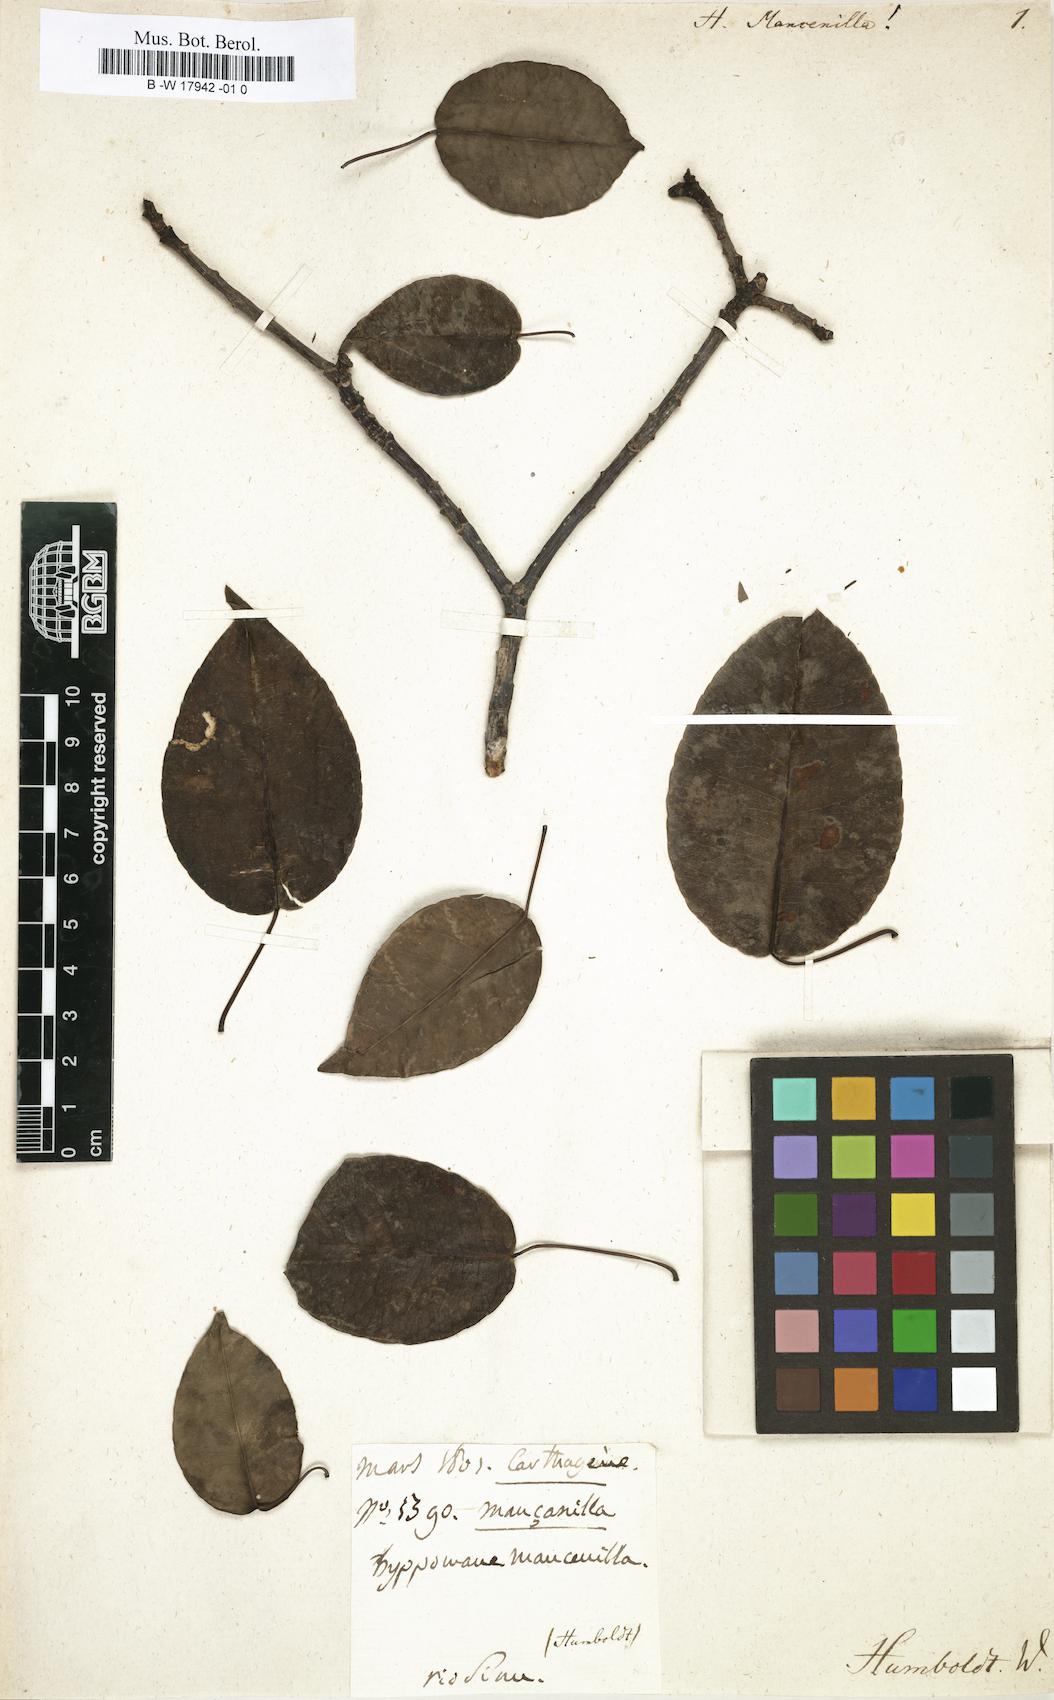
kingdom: Plantae
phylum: Tracheophyta
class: Magnoliopsida
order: Malpighiales
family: Euphorbiaceae
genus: Hippomane
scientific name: Hippomane mancinella
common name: Manchineel
